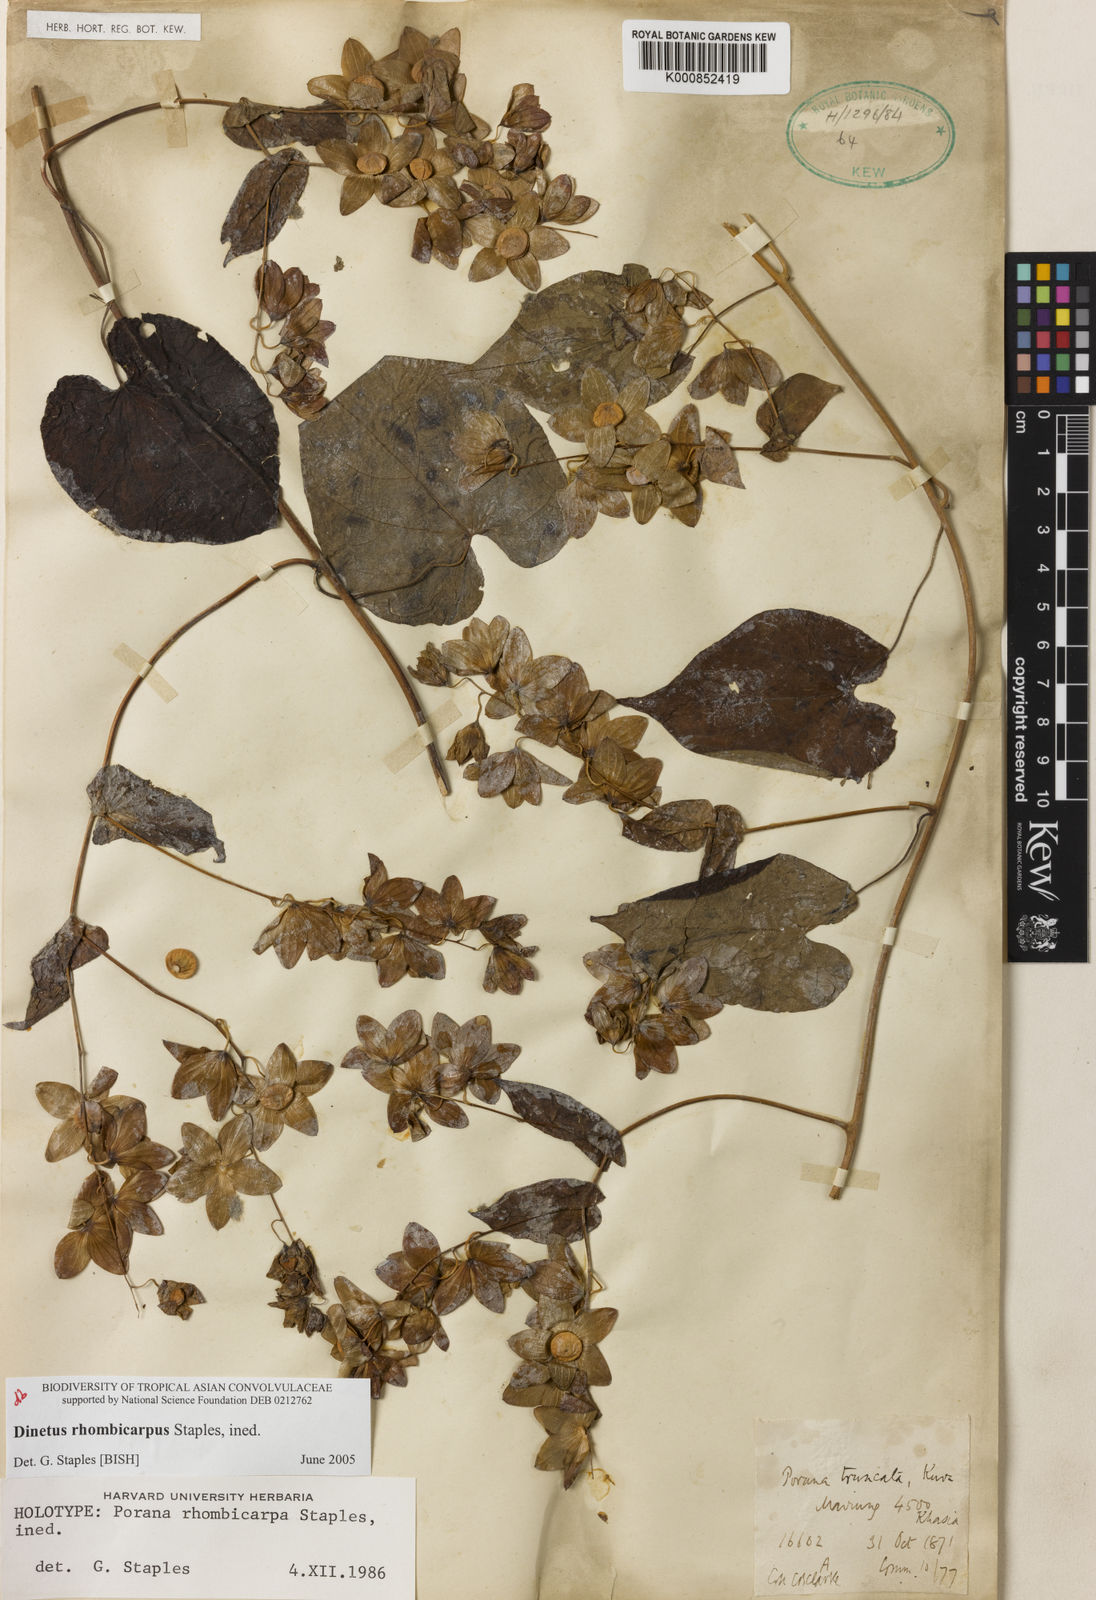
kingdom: Plantae
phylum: Tracheophyta
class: Magnoliopsida
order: Solanales
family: Convolvulaceae
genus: Porana
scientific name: Porana
